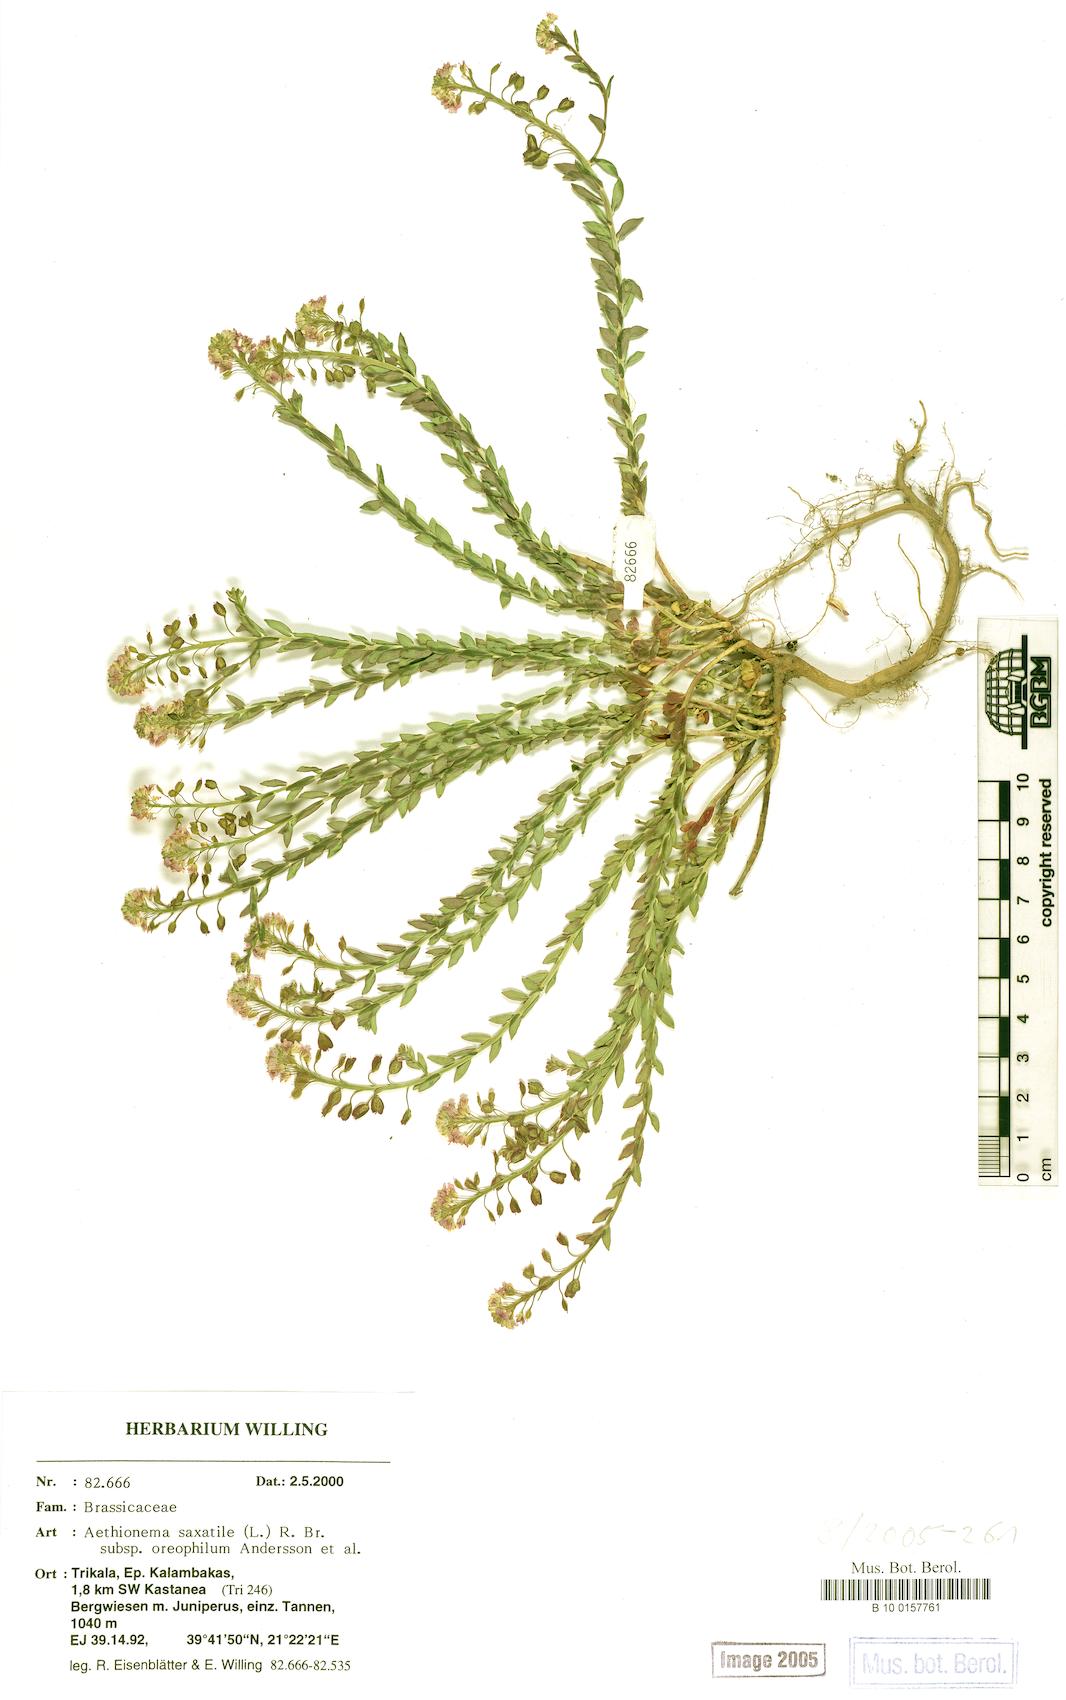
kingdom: Plantae
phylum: Tracheophyta
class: Magnoliopsida
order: Brassicales
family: Brassicaceae
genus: Aethionema
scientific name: Aethionema saxatile
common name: Burnt candytuft
